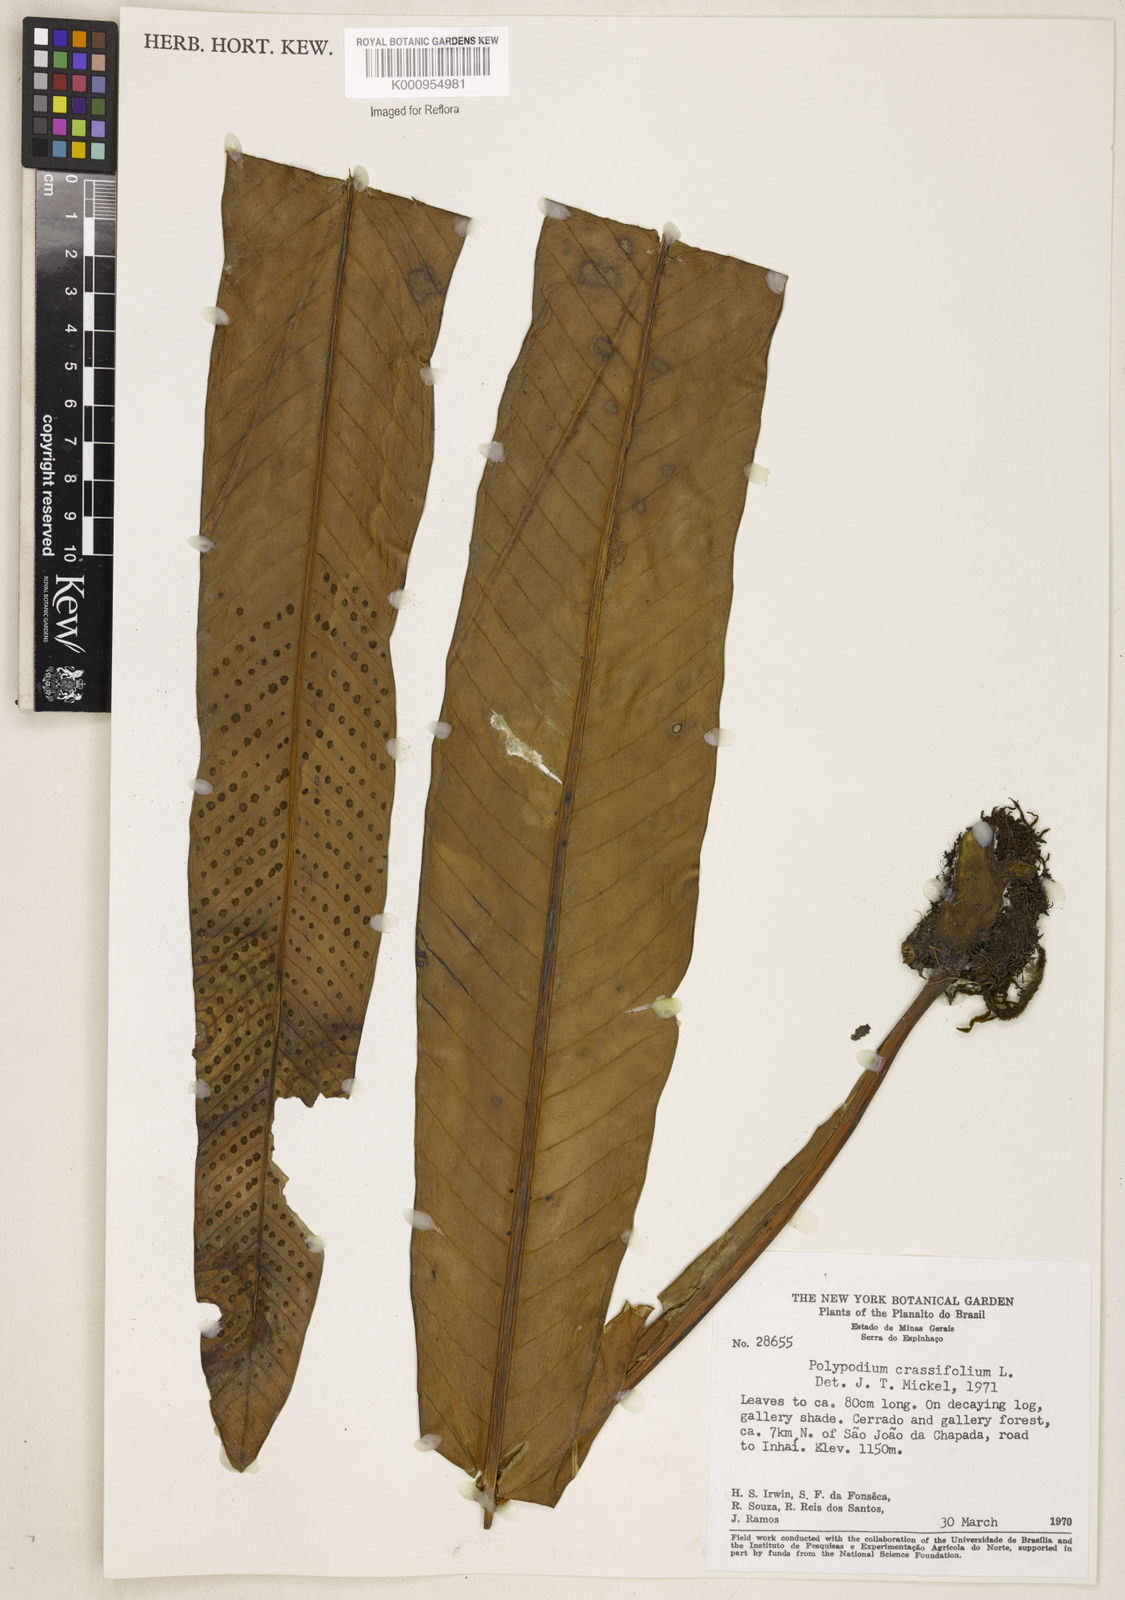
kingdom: Plantae
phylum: Tracheophyta
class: Polypodiopsida
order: Polypodiales
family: Polypodiaceae
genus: Niphidium
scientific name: Niphidium crassifolium
